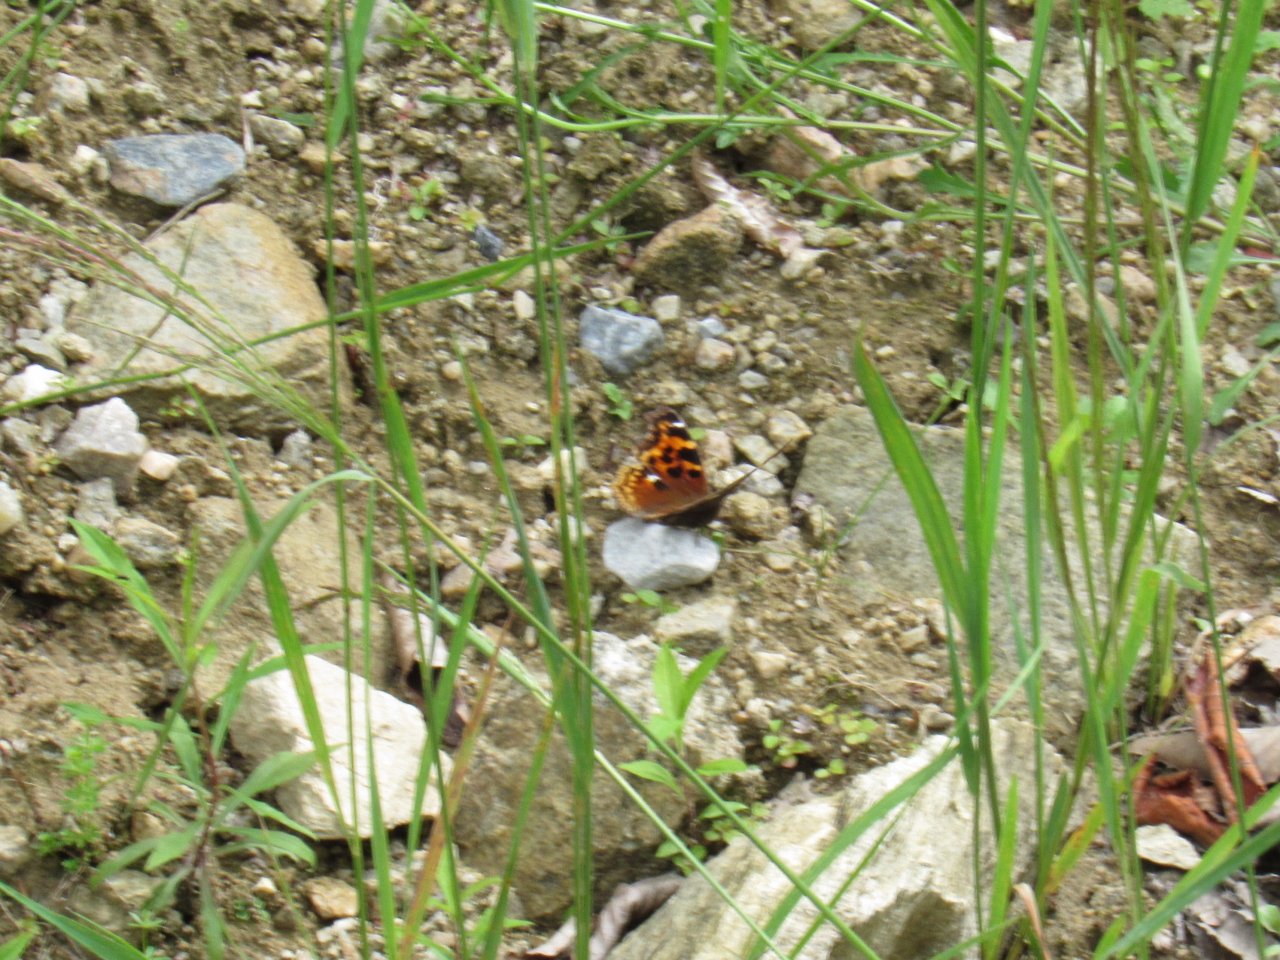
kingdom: Animalia
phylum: Arthropoda
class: Insecta
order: Lepidoptera
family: Nymphalidae
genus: Polygonia
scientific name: Polygonia vaualbum
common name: Compton Tortoiseshell
